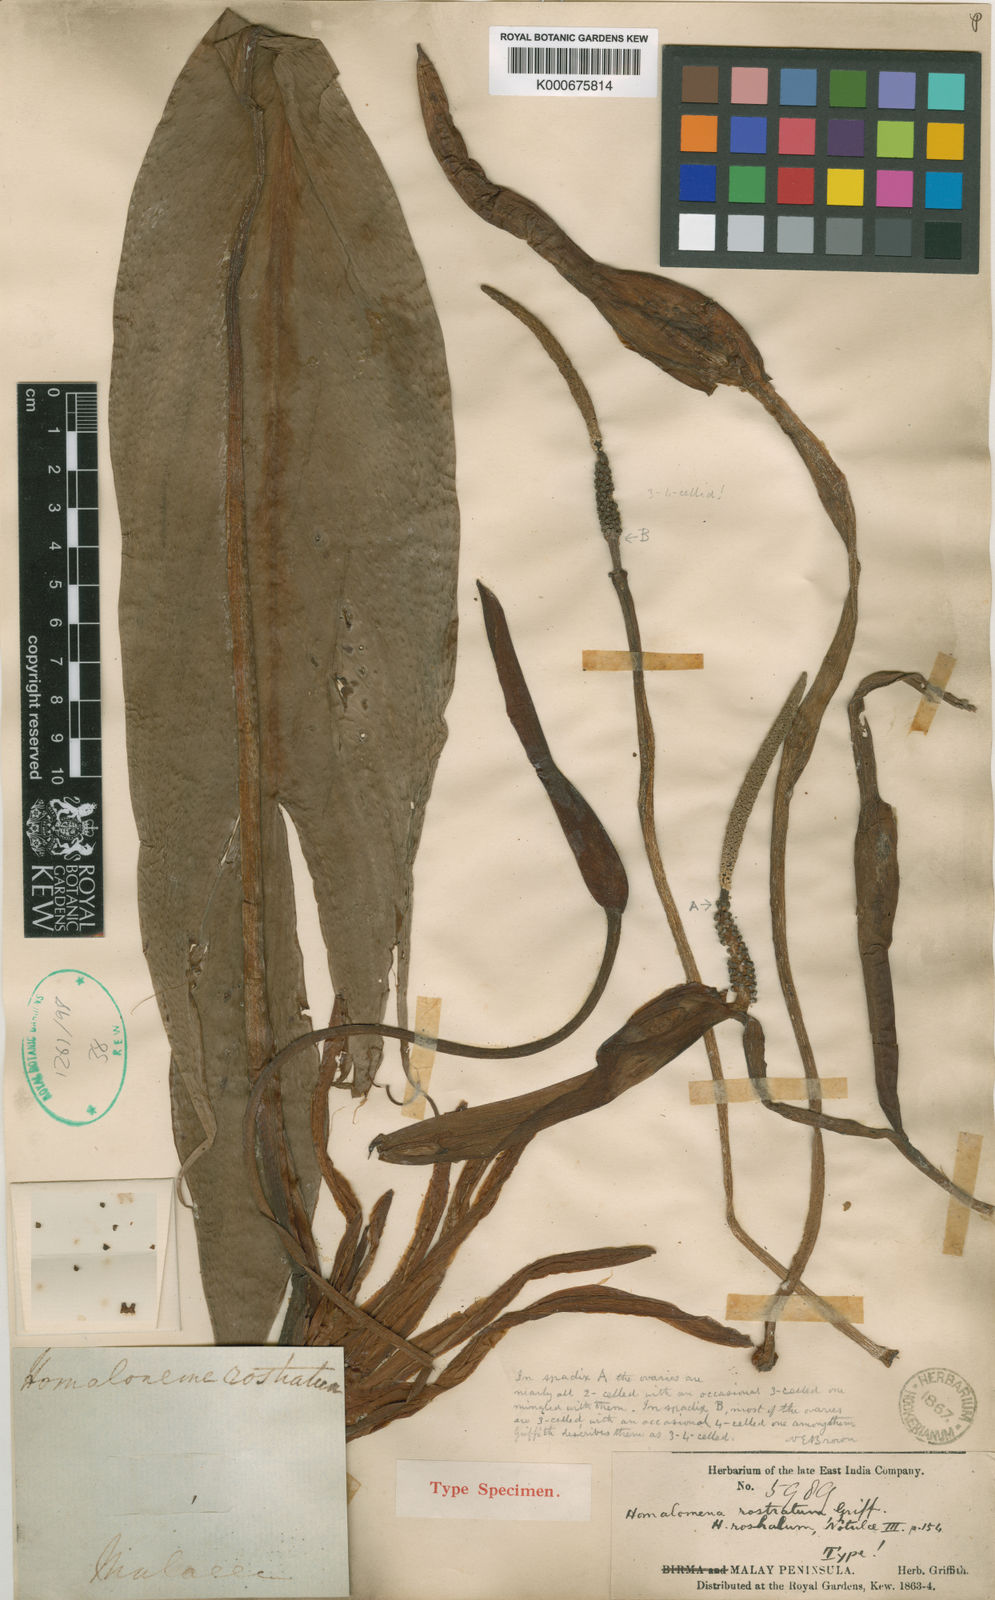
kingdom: Plantae
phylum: Tracheophyta
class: Liliopsida
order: Alismatales
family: Araceae
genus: Homalomena
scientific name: Homalomena rostrata
